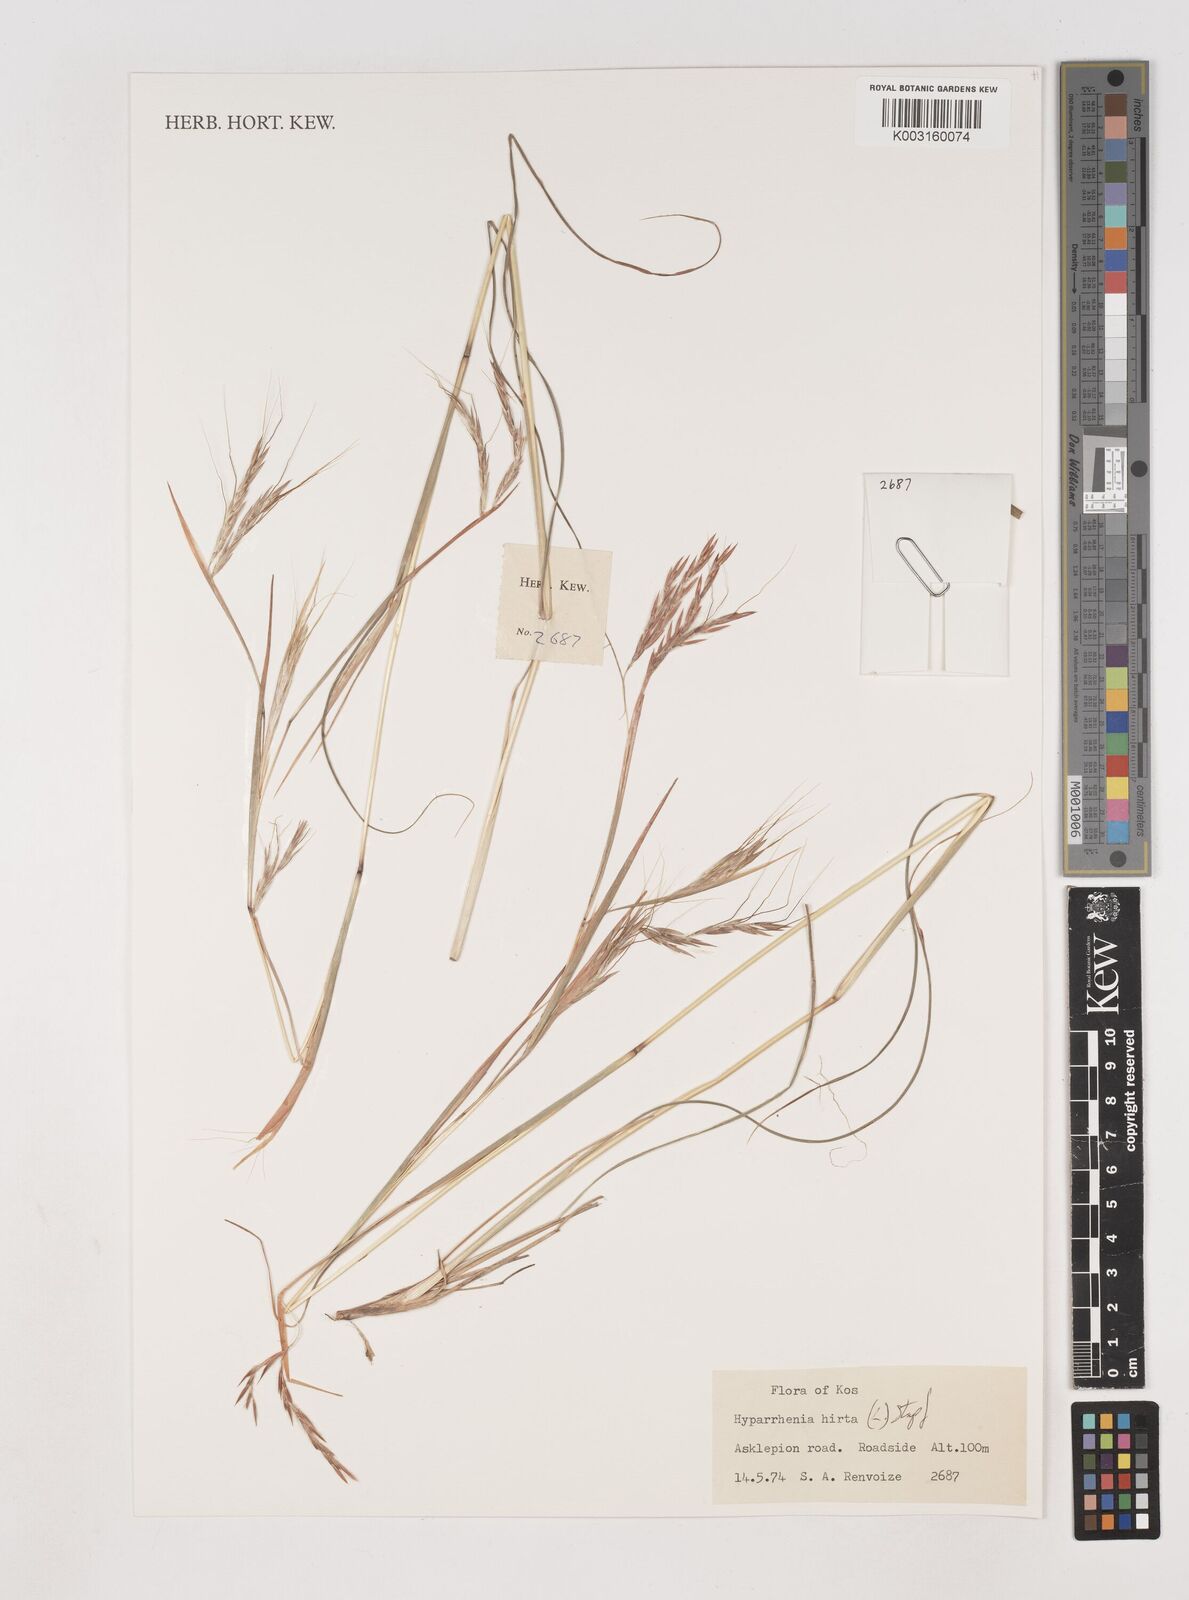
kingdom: Plantae
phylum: Tracheophyta
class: Liliopsida
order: Poales
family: Poaceae
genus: Hyparrhenia
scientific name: Hyparrhenia hirta
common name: Thatching grass
